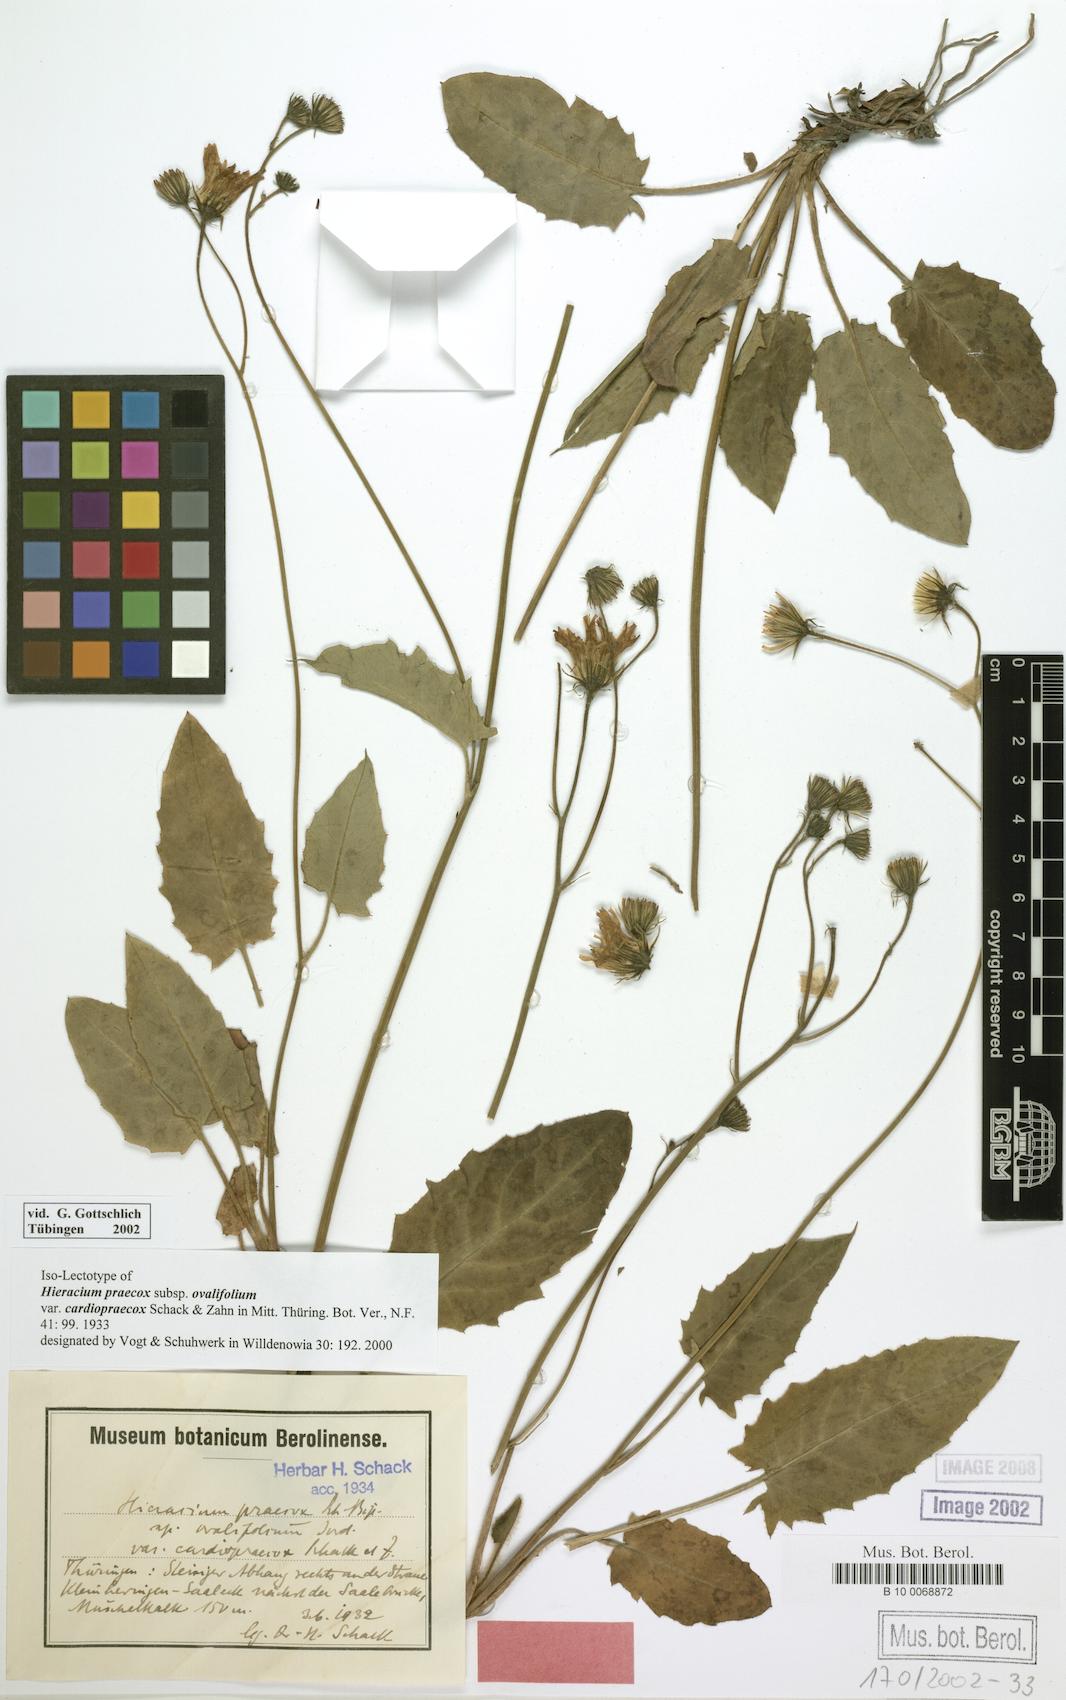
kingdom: Plantae
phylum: Tracheophyta
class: Magnoliopsida
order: Asterales
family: Asteraceae
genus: Hieracium
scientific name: Hieracium praecox
